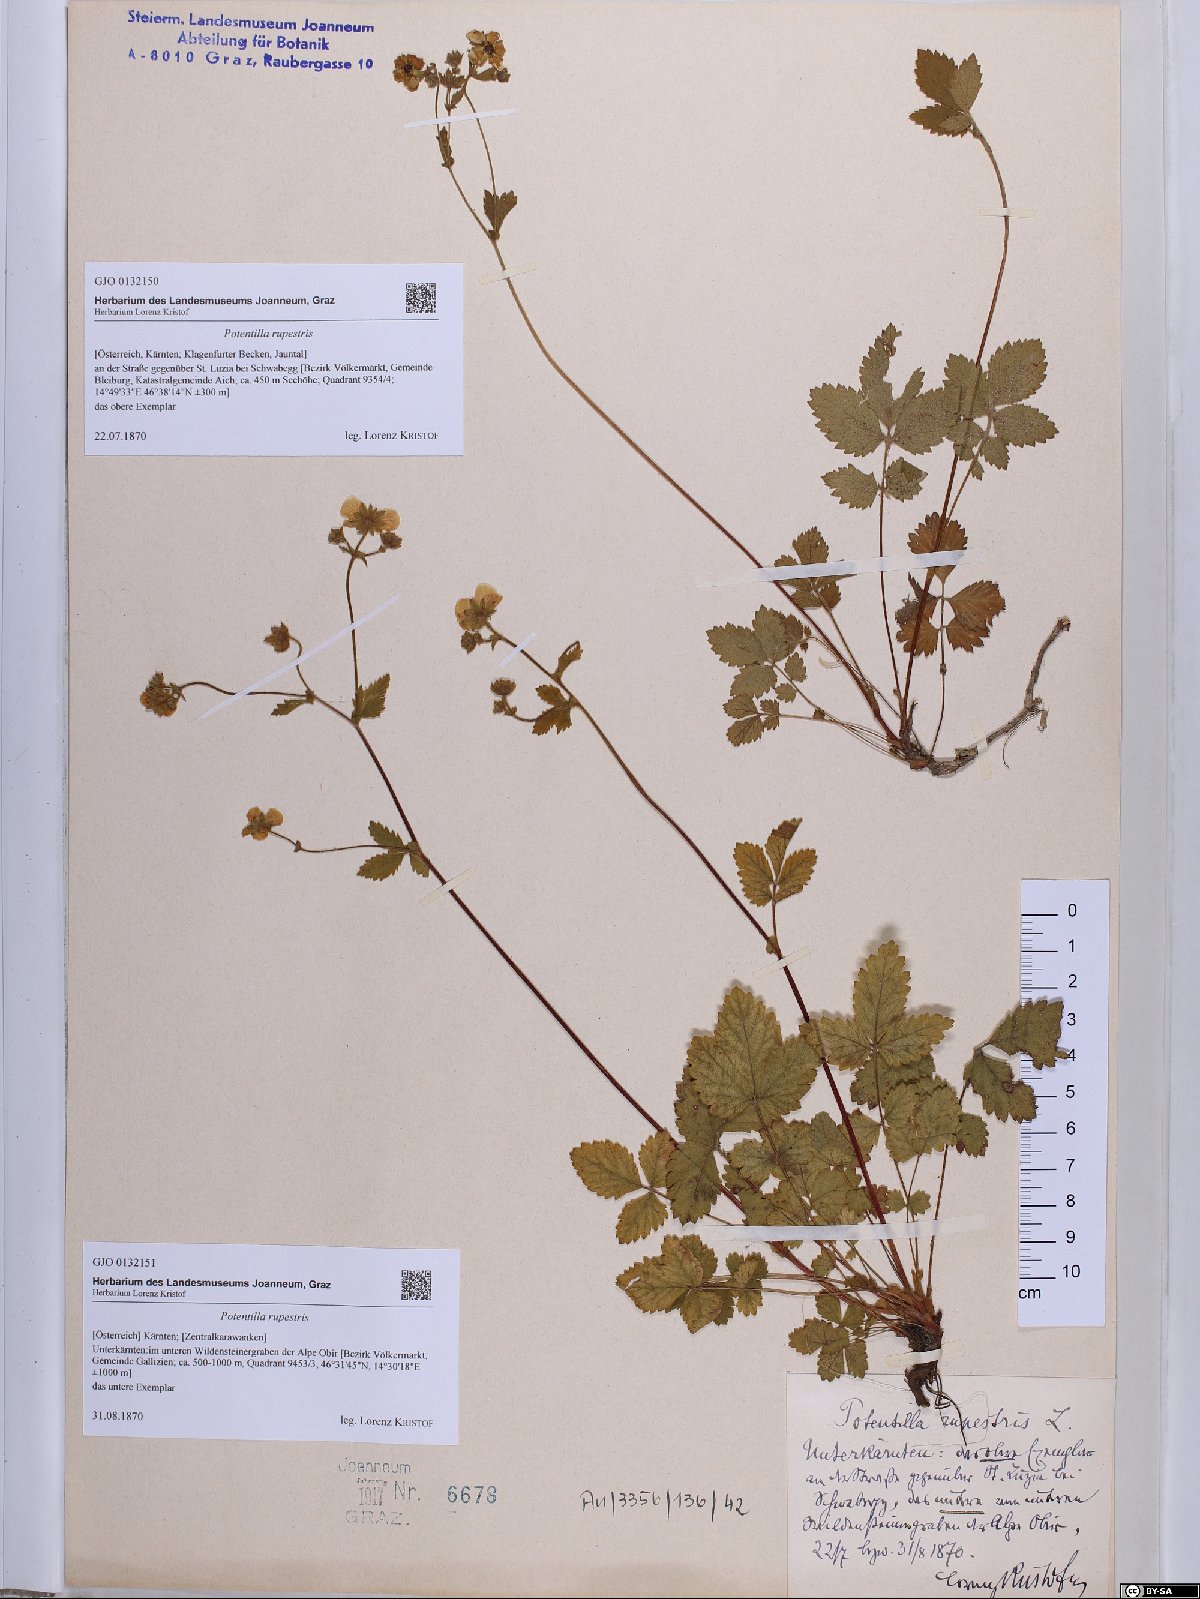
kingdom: Plantae
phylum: Tracheophyta
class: Magnoliopsida
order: Rosales
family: Rosaceae
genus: Drymocallis
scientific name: Drymocallis rupestris
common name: Rock cinquefoil
